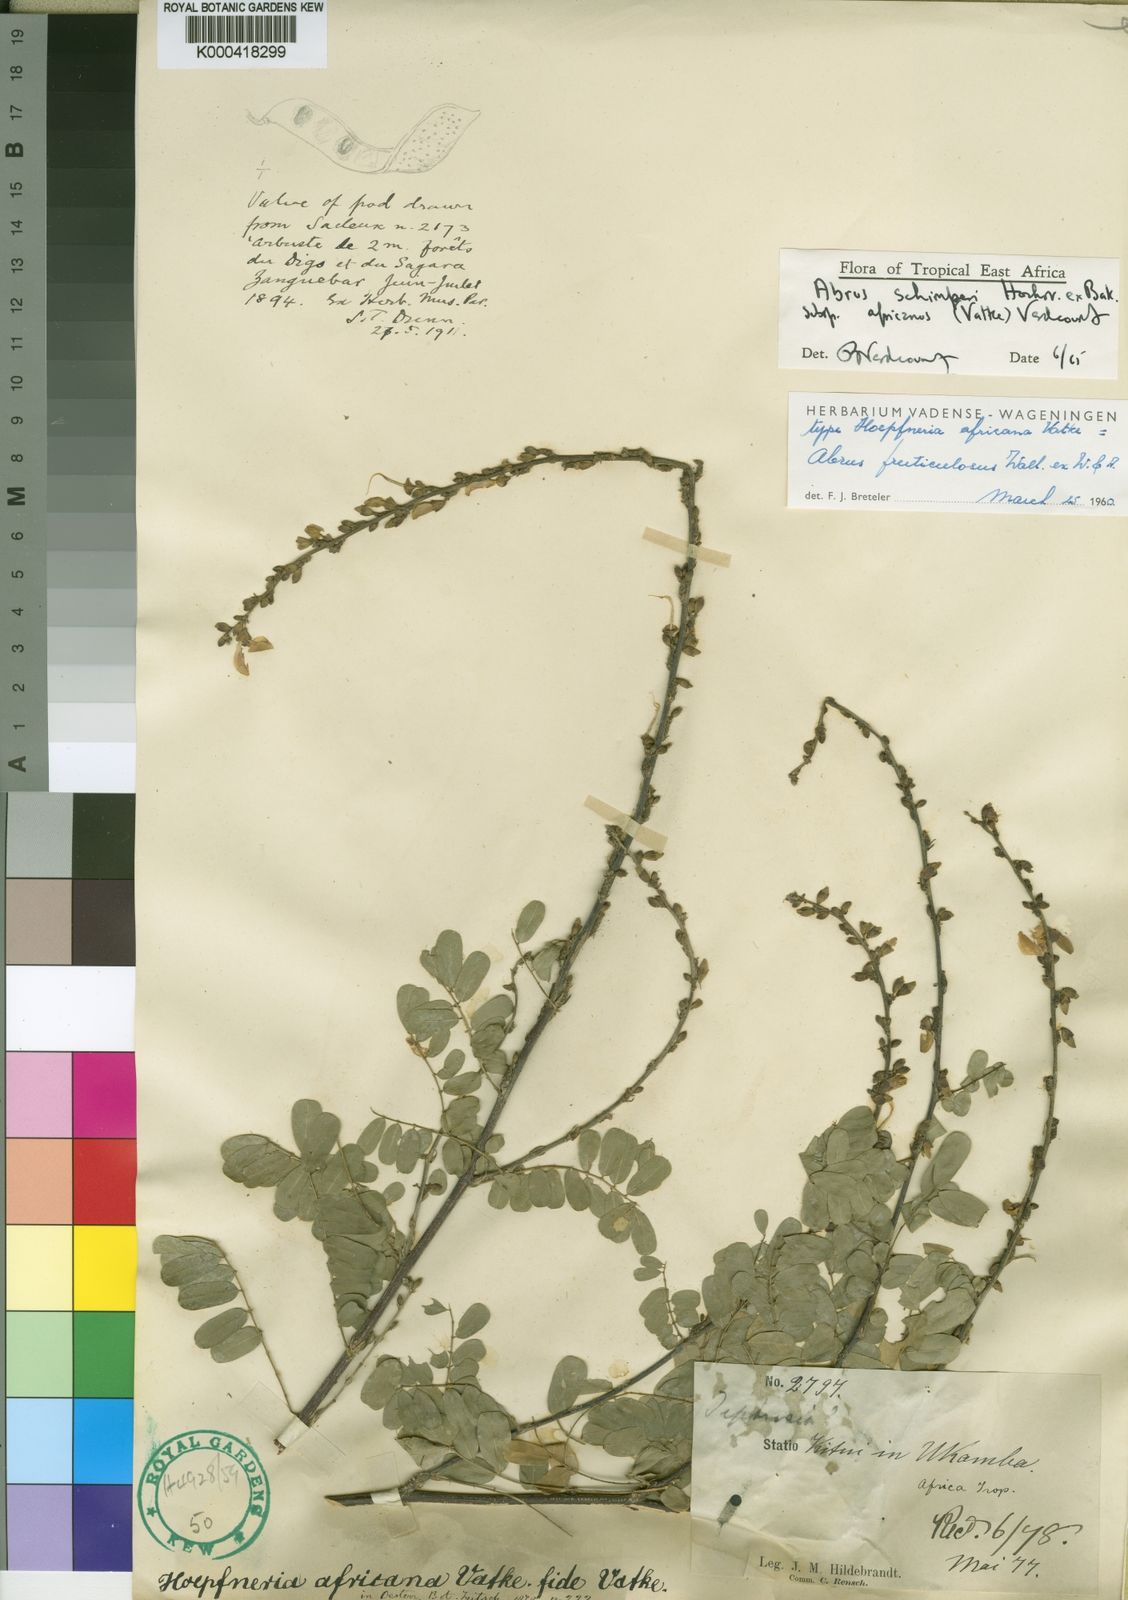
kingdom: Plantae
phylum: Tracheophyta
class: Magnoliopsida
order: Fabales
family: Fabaceae
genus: Abrus
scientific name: Abrus fruticulosus
